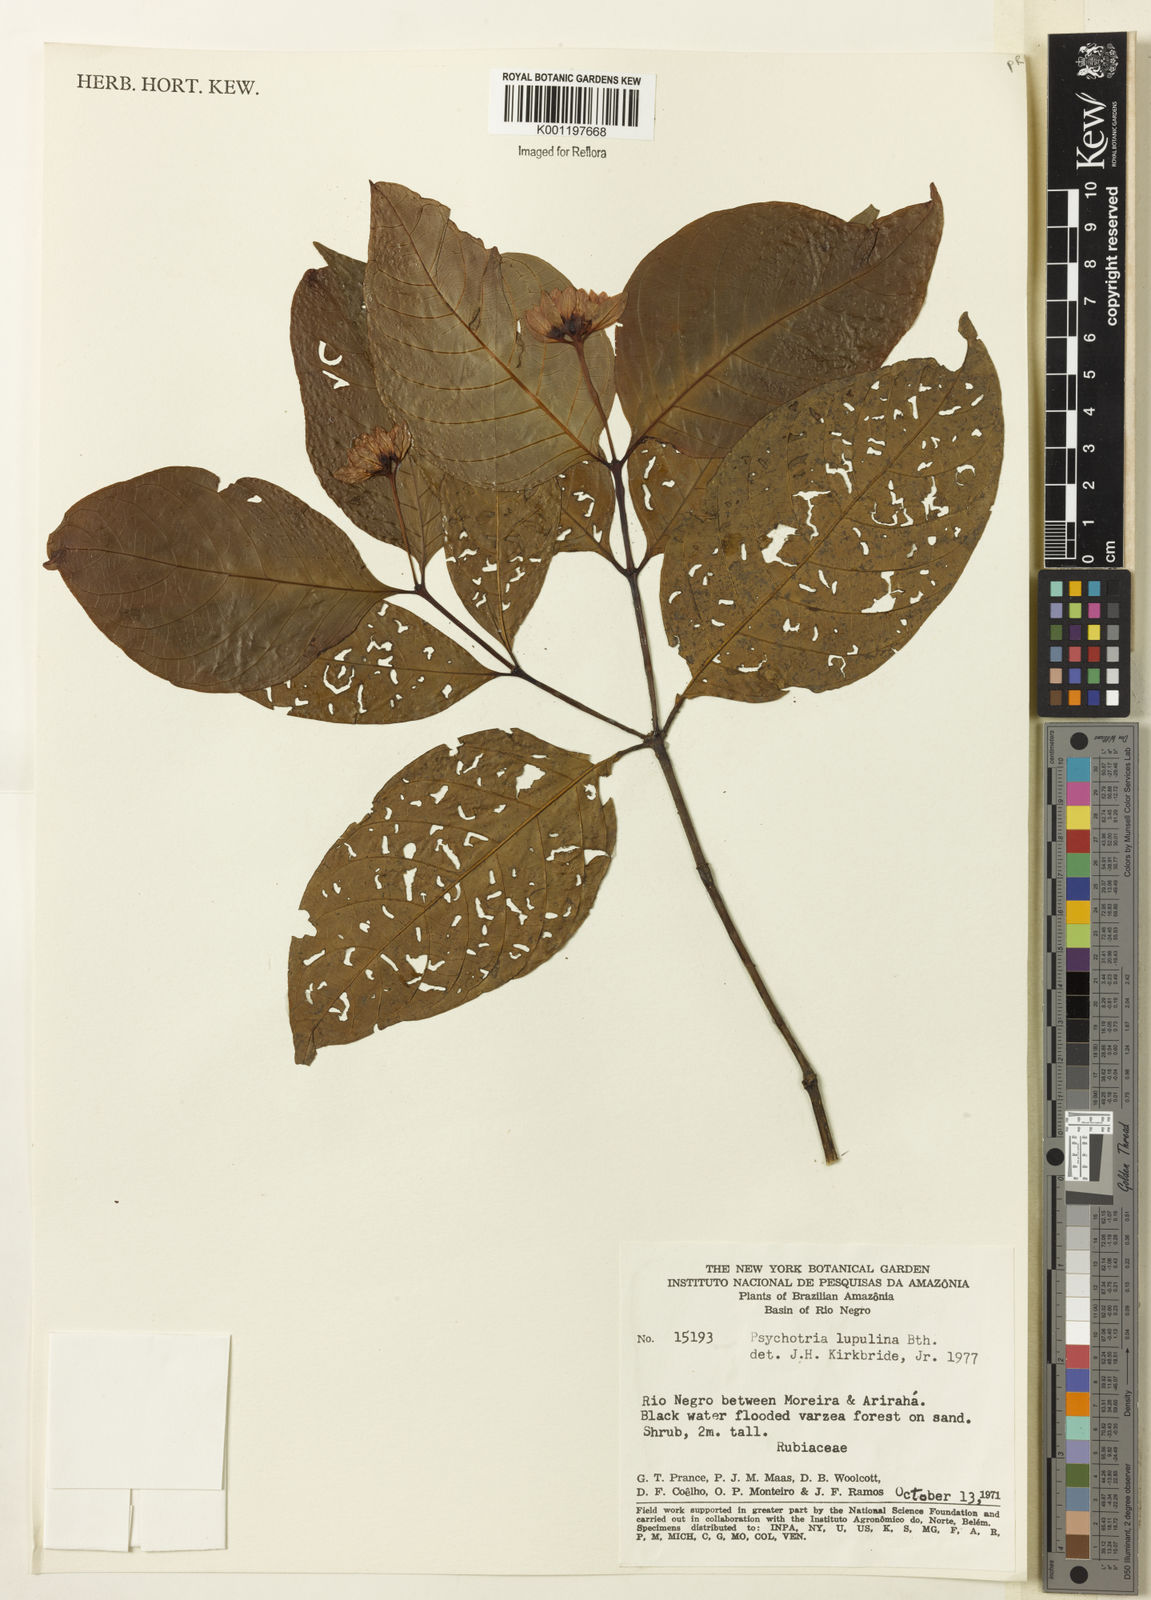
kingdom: Plantae
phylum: Tracheophyta
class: Magnoliopsida
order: Gentianales
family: Rubiaceae
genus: Palicourea
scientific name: Palicourea justiciifolia
